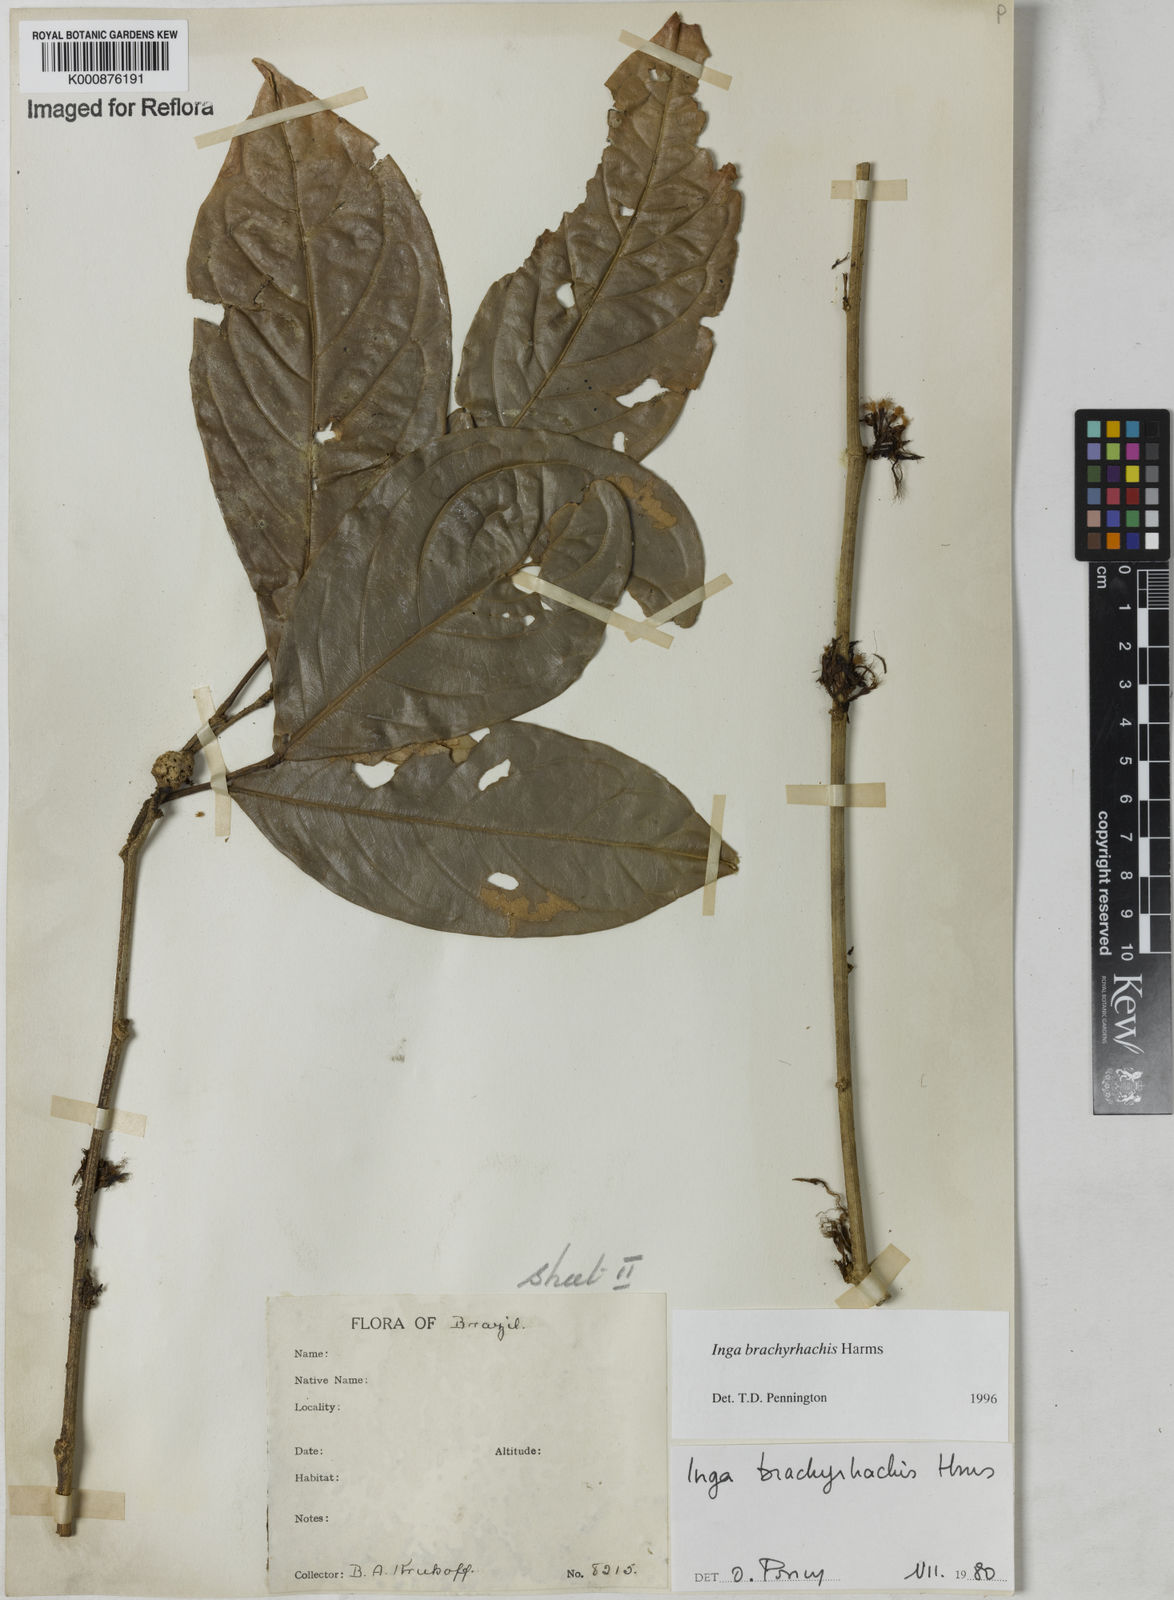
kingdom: Plantae
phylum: Tracheophyta
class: Magnoliopsida
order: Fabales
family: Fabaceae
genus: Inga
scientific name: Inga brachyrhachis
